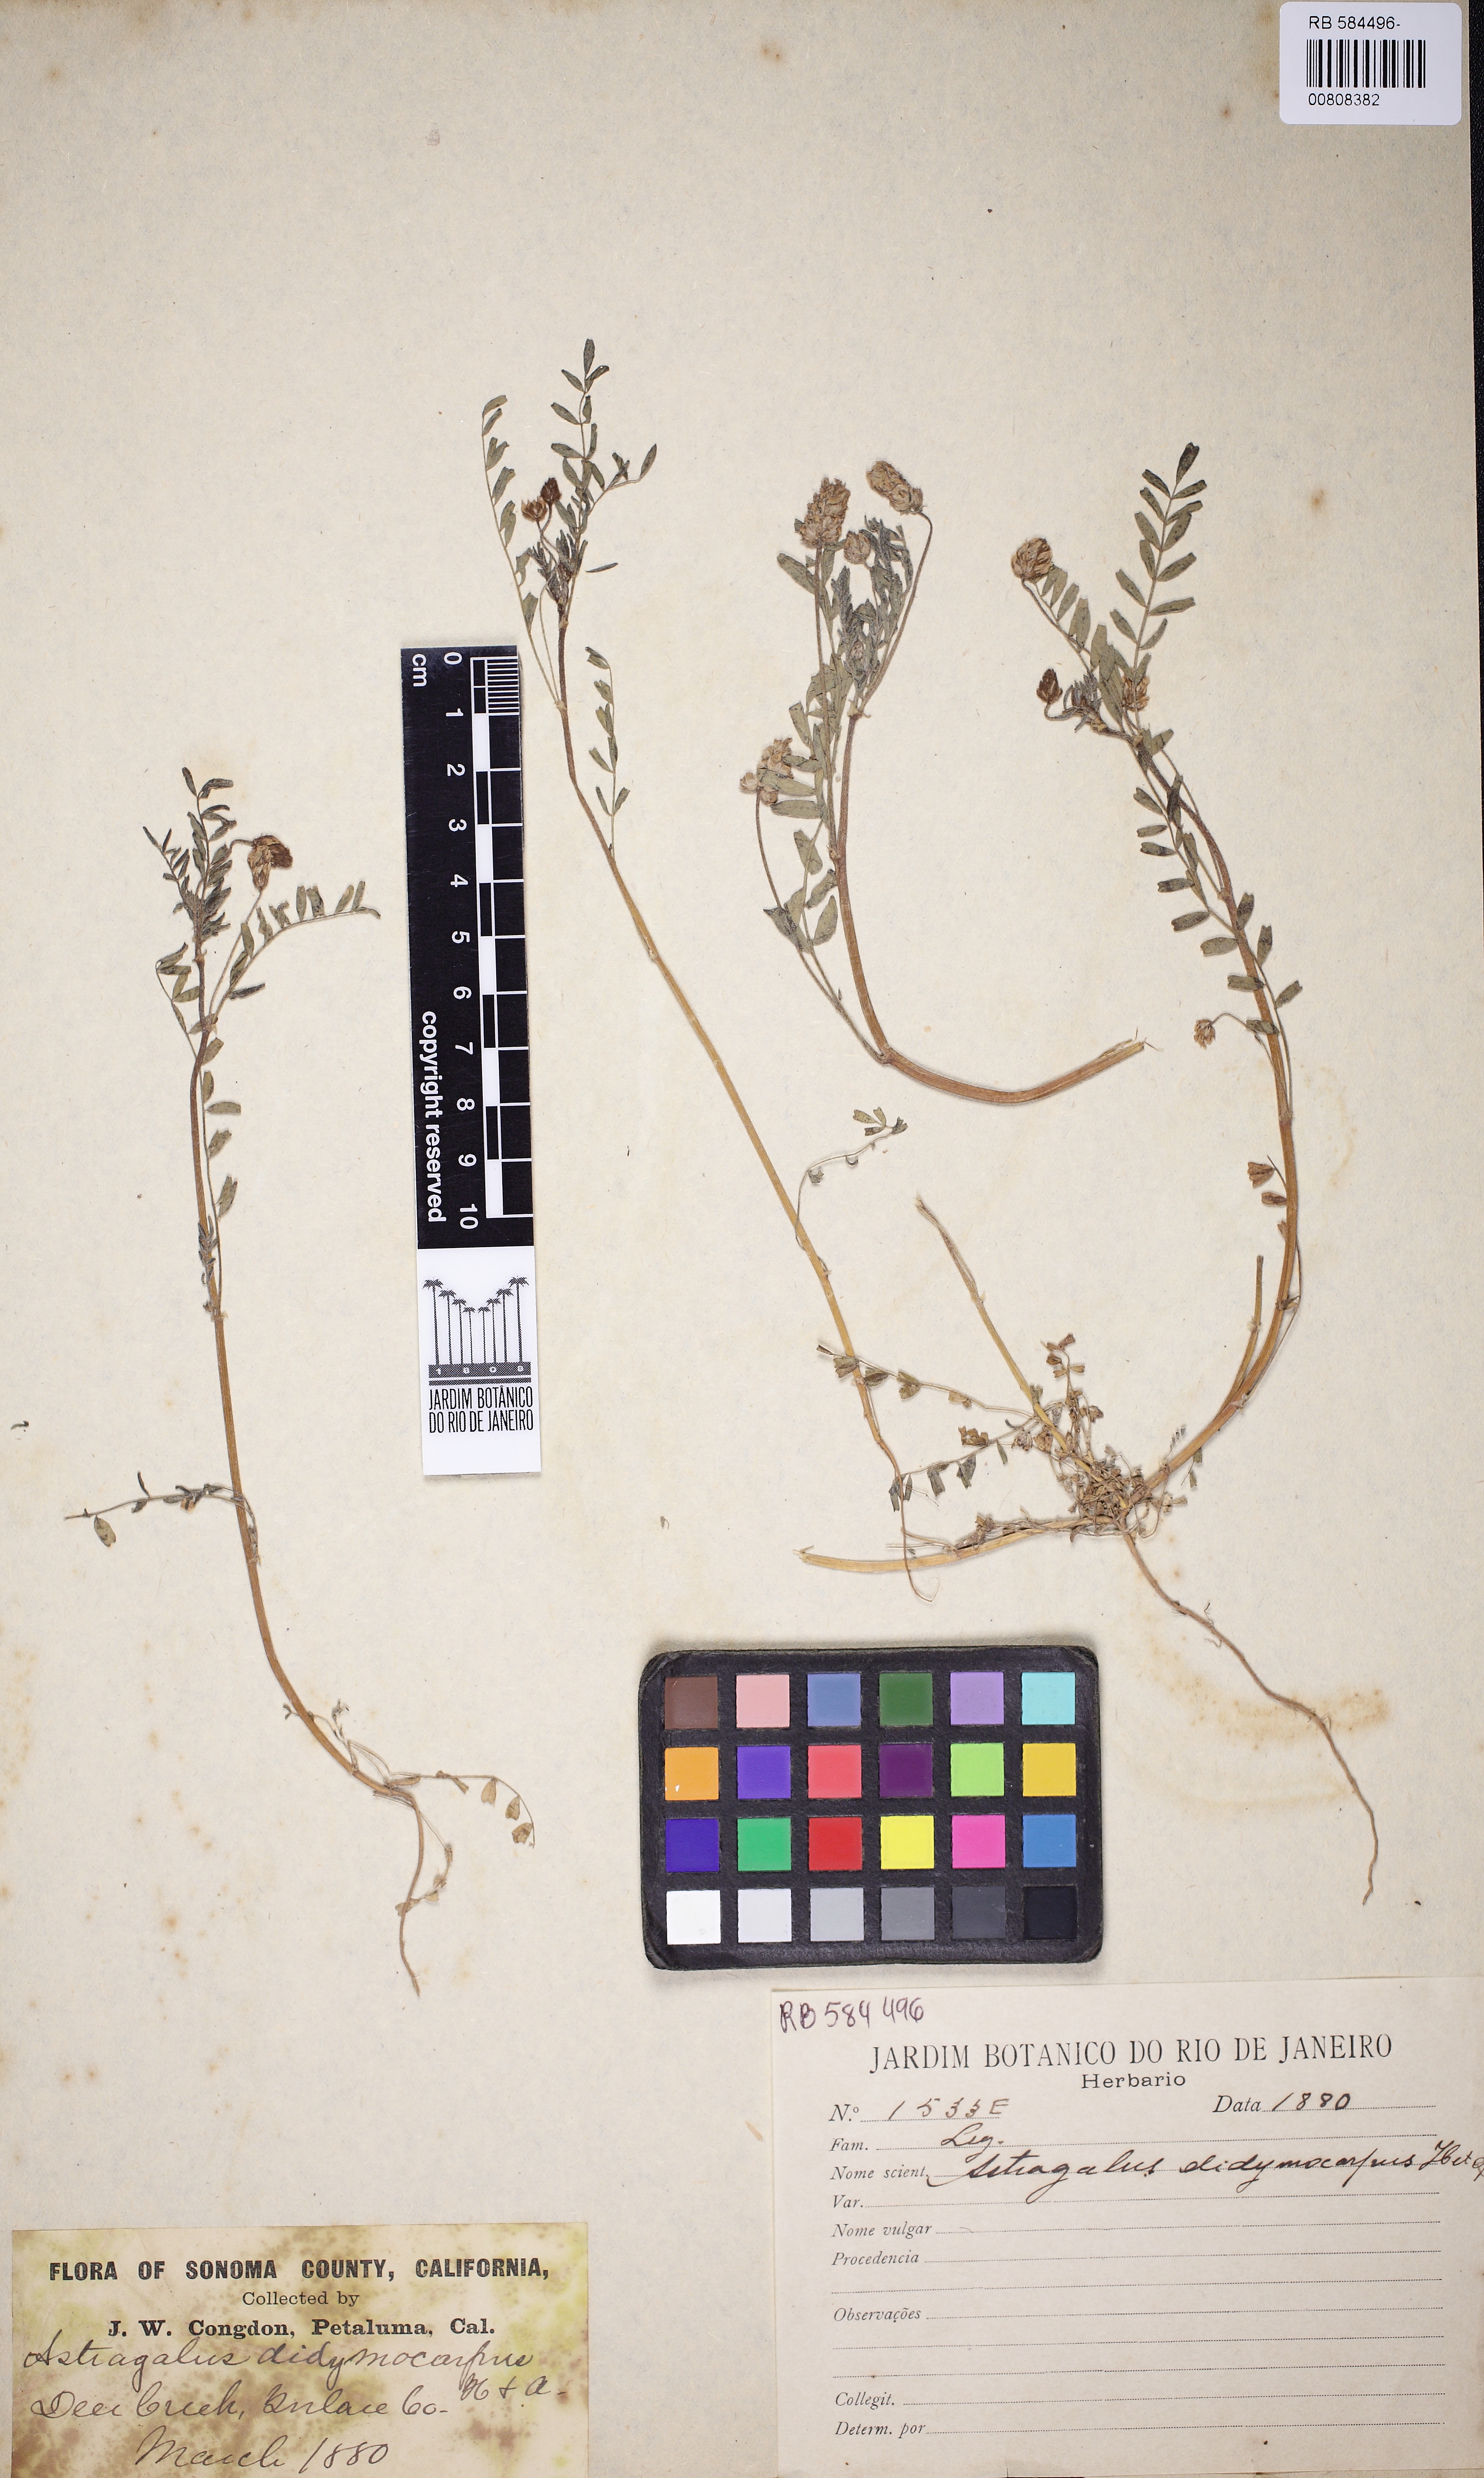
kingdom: Plantae
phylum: Tracheophyta
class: Magnoliopsida
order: Fabales
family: Fabaceae
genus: Astragalus
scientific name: Astragalus didymocarpus
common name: Dwarf white milkvetch
